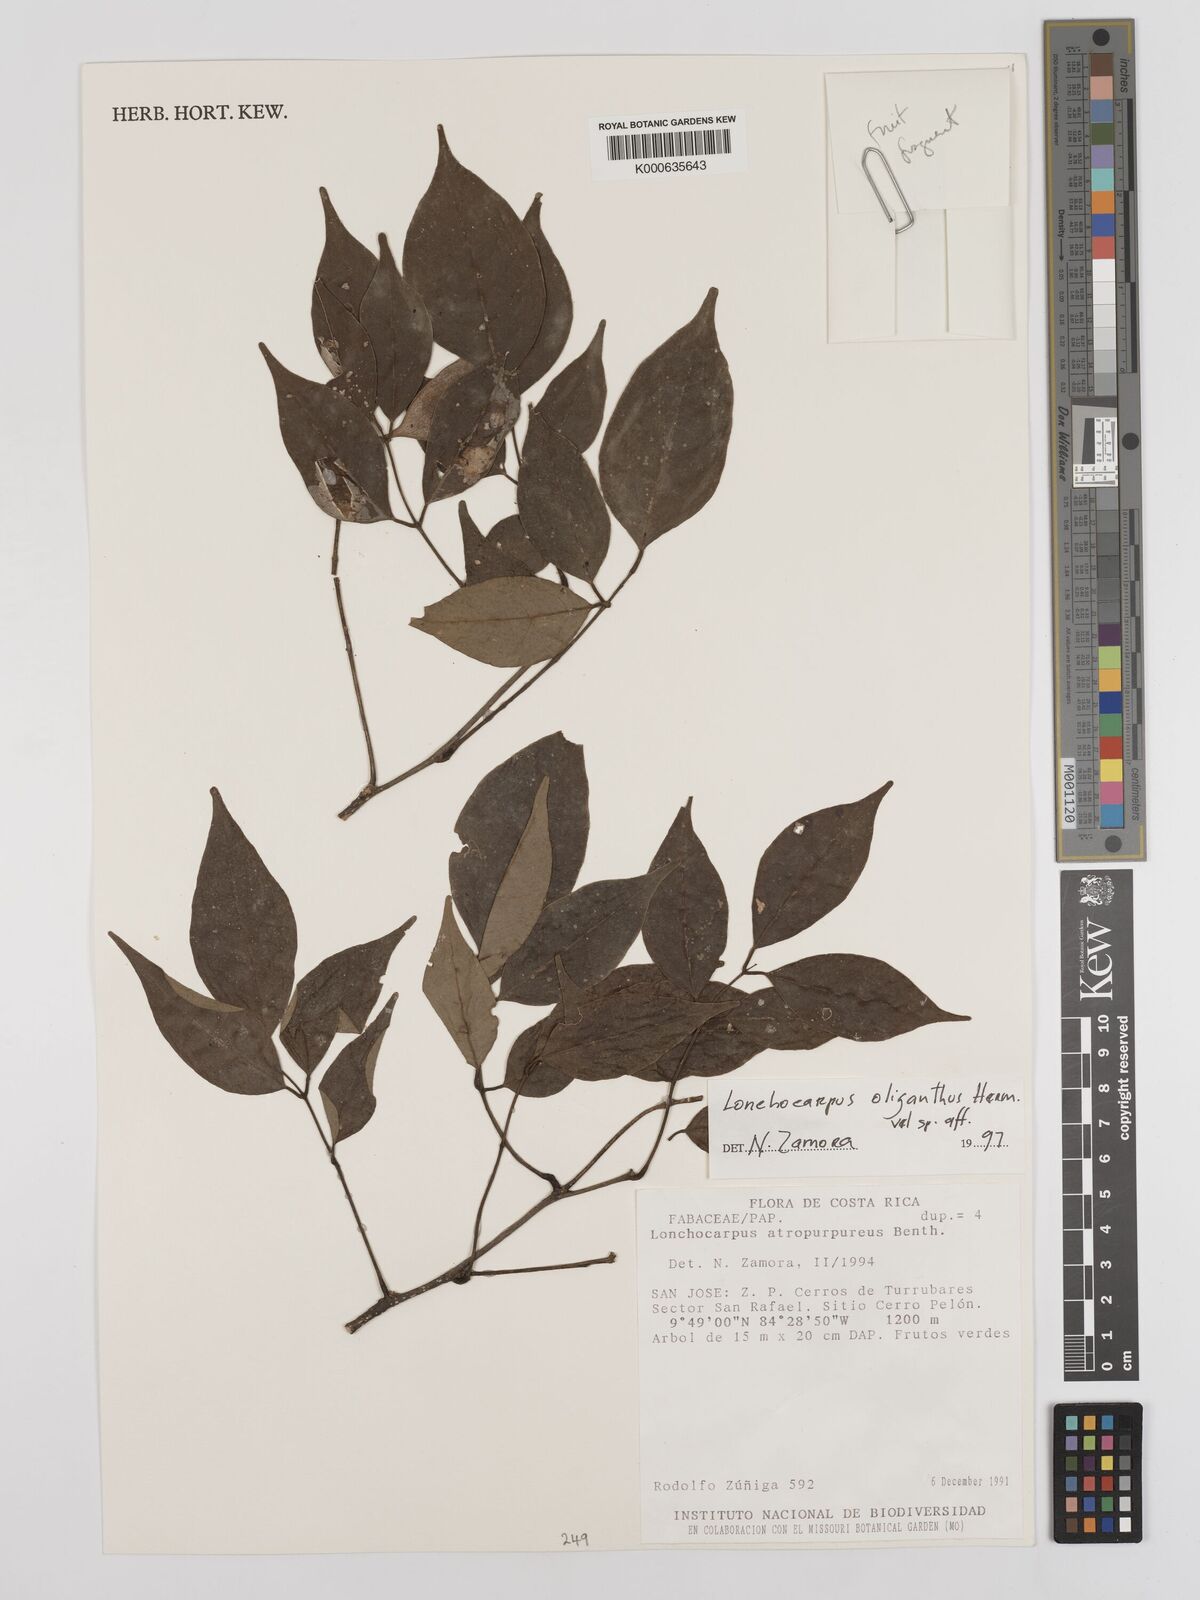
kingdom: Plantae
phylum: Tracheophyta
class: Magnoliopsida
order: Fabales
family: Fabaceae
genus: Lonchocarpus
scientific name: Lonchocarpus oliganthus
